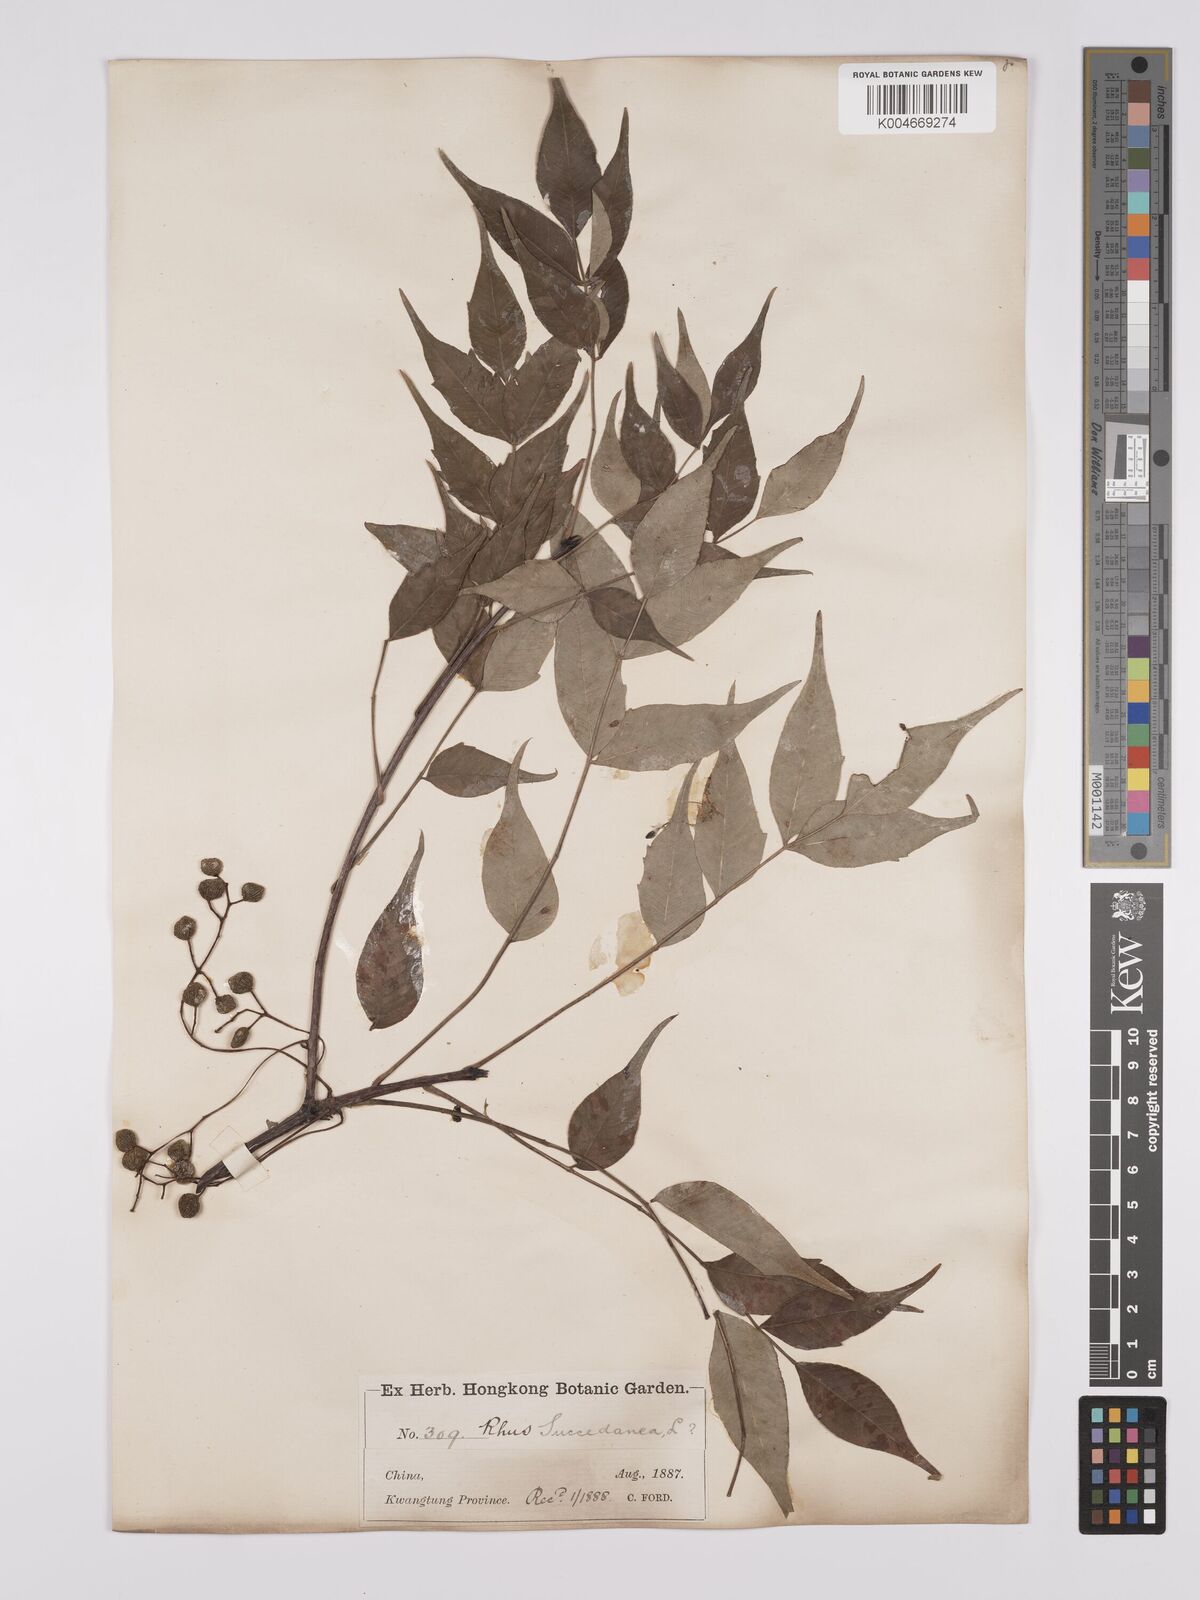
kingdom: Plantae
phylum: Tracheophyta
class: Magnoliopsida
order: Sapindales
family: Anacardiaceae
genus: Toxicodendron
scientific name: Toxicodendron succedaneum
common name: Wax tree
